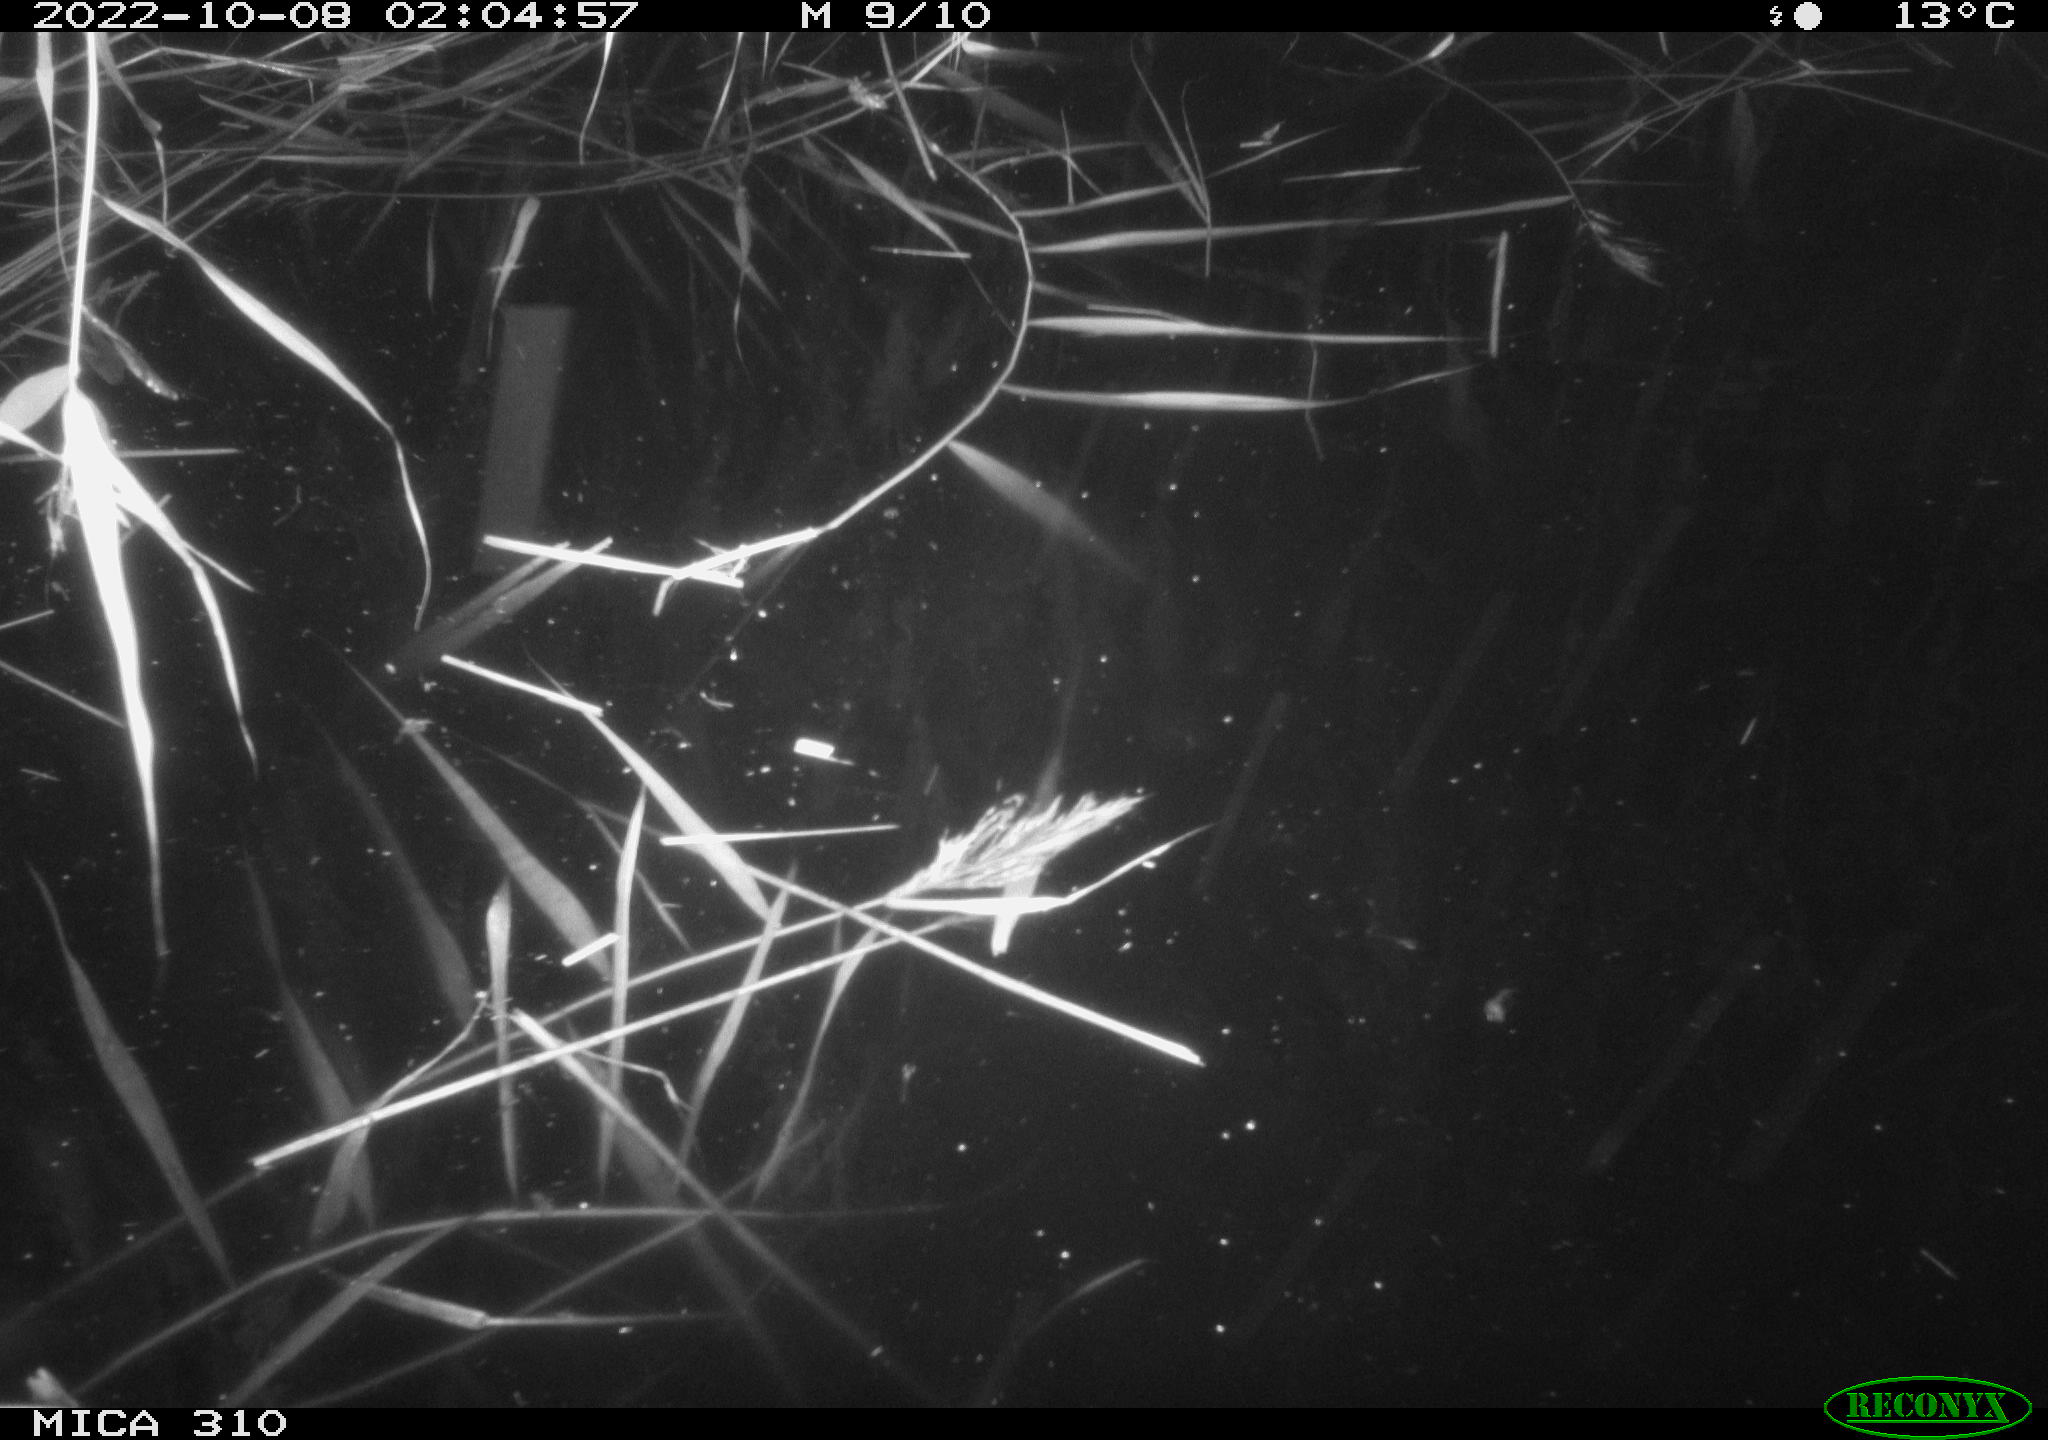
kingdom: Animalia
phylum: Chordata
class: Mammalia
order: Rodentia
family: Muridae
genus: Rattus
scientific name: Rattus norvegicus
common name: Brown rat
